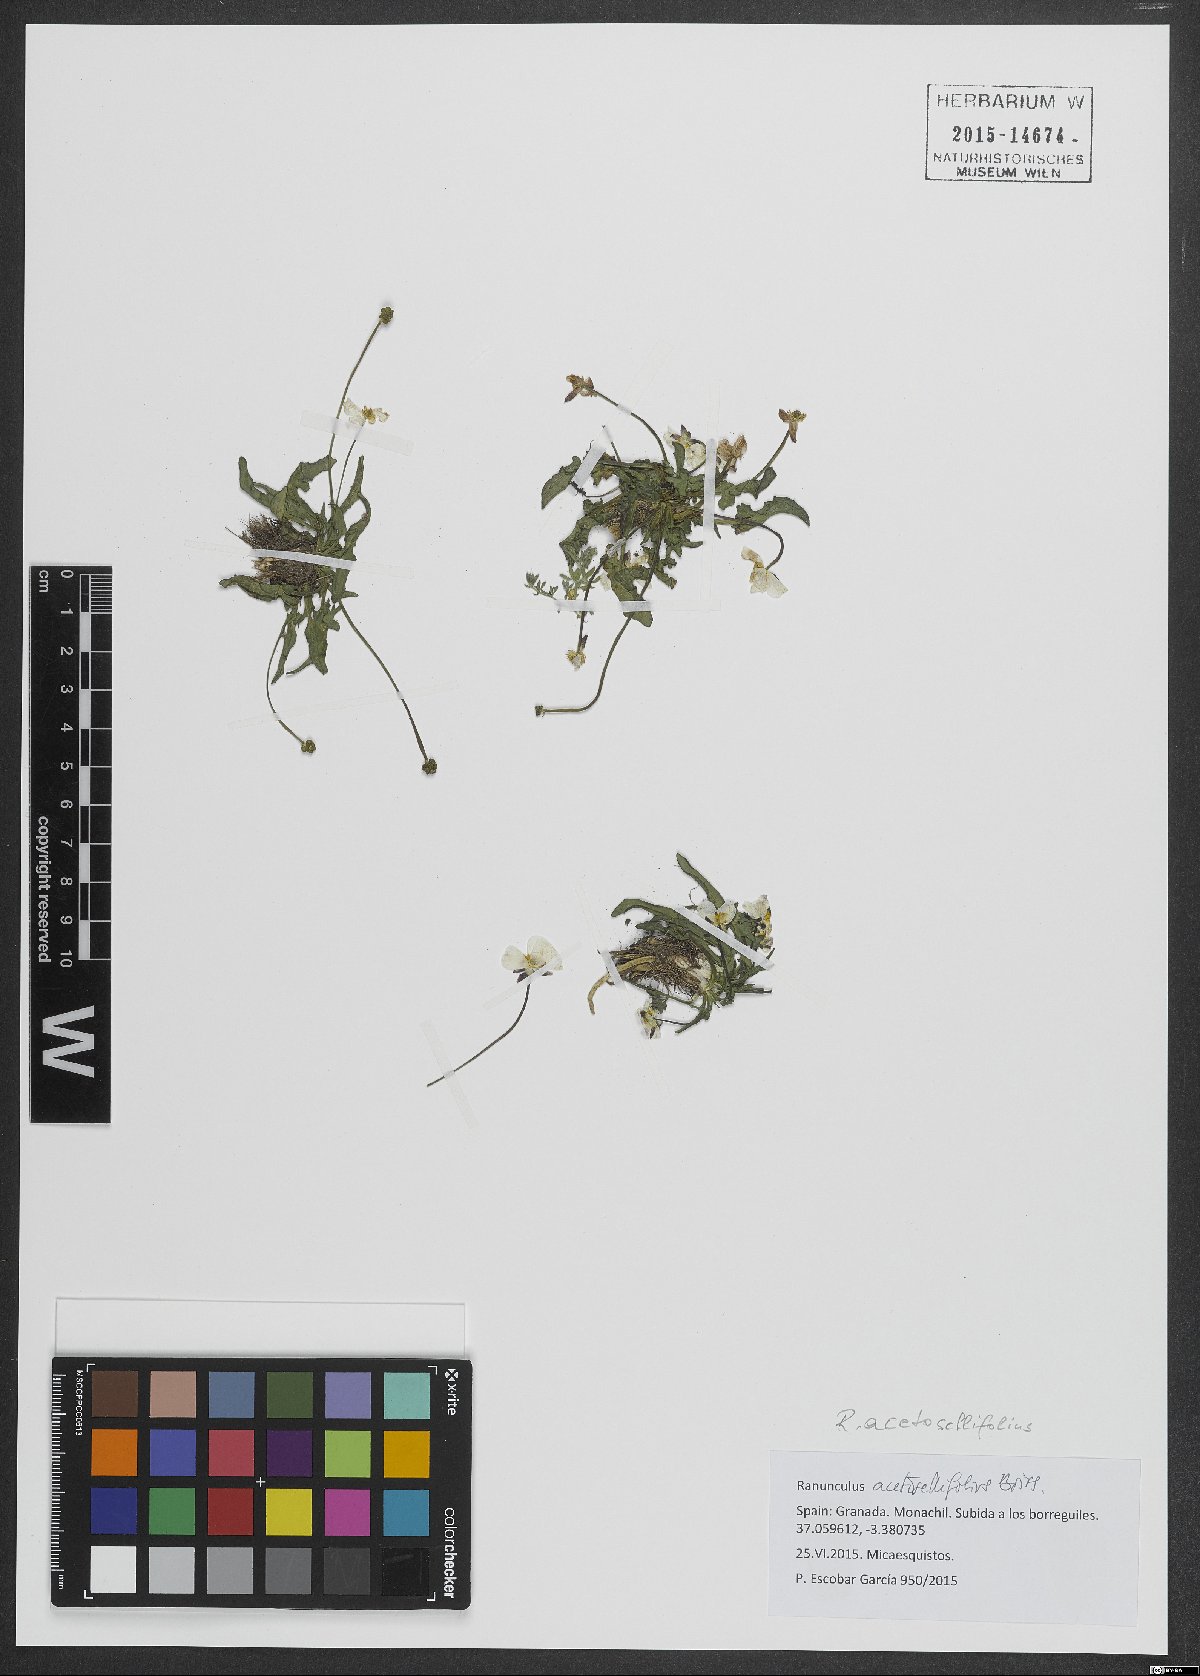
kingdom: Plantae
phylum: Tracheophyta
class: Magnoliopsida
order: Ranunculales
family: Ranunculaceae
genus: Ranunculus
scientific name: Ranunculus acetosellifolius
